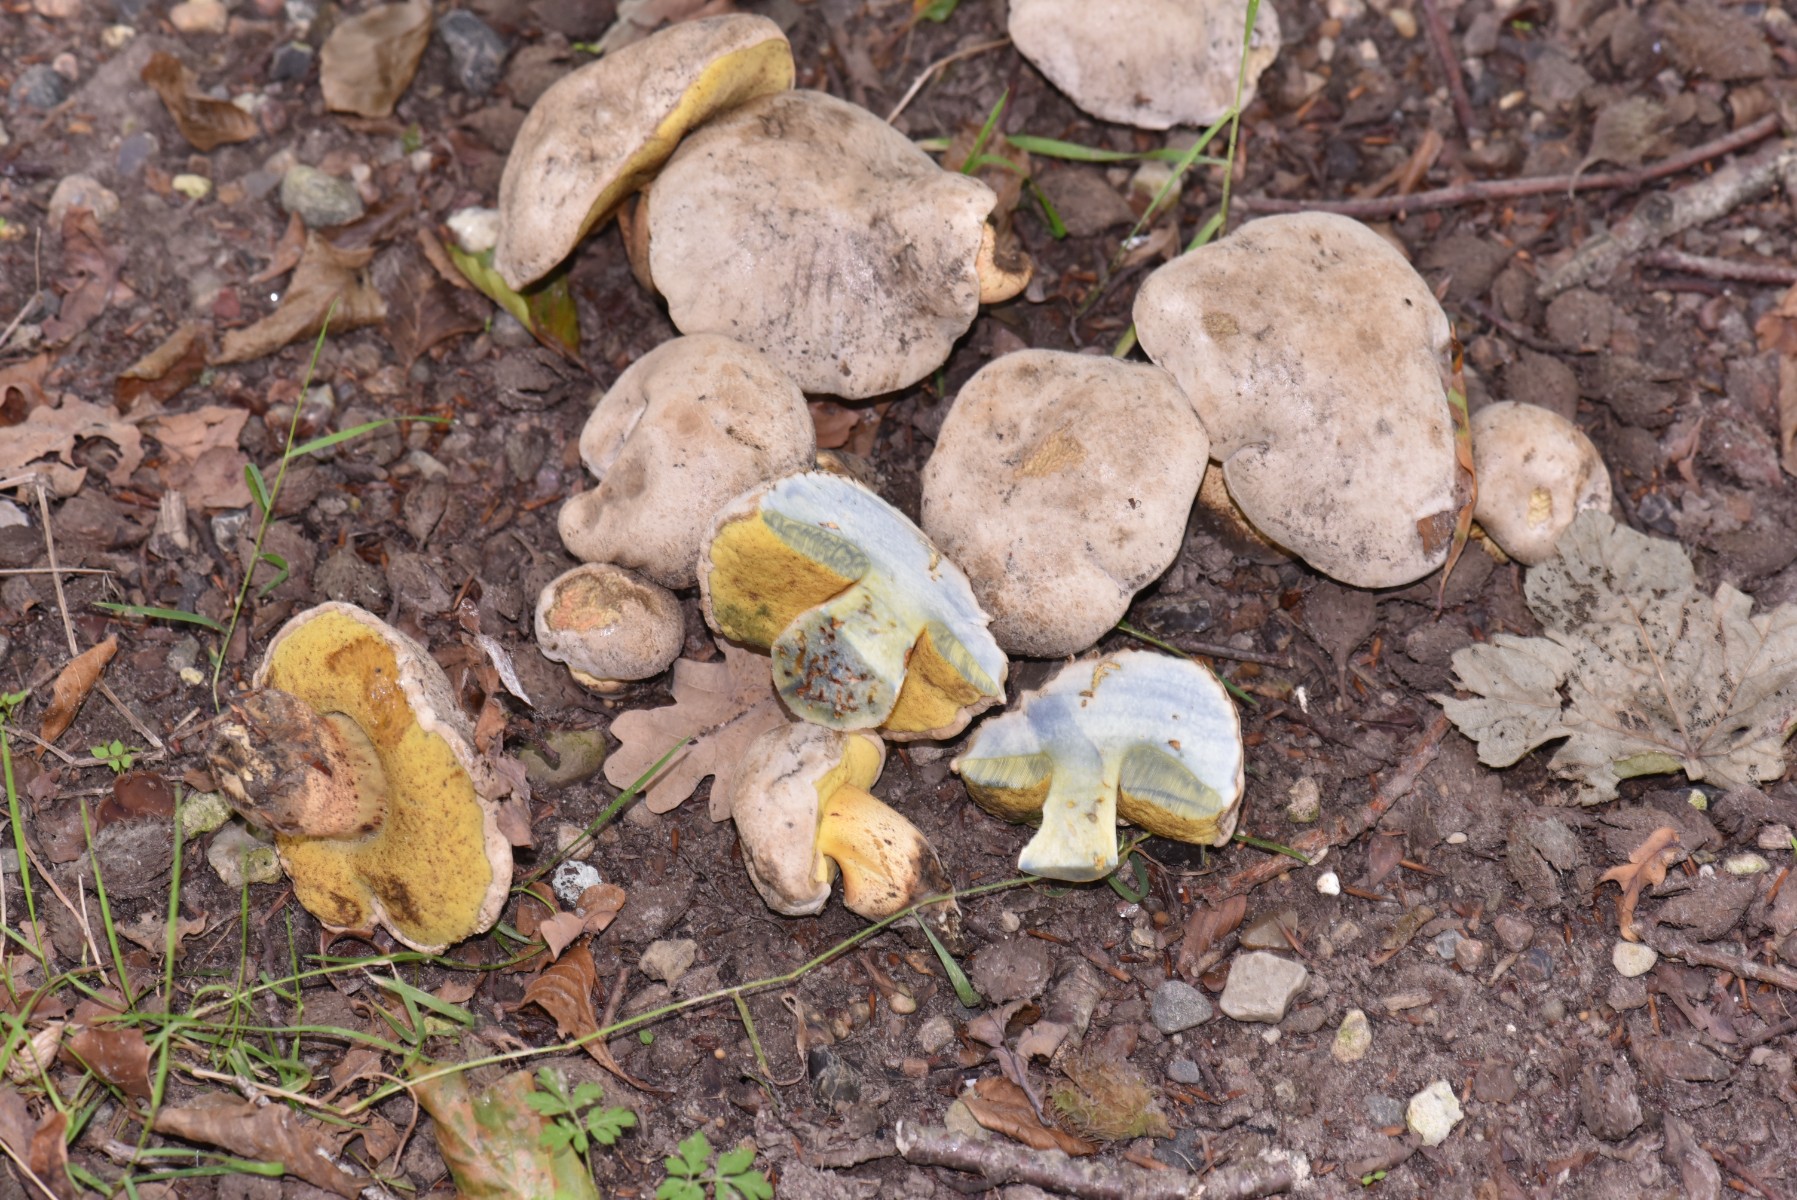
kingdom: Fungi
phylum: Basidiomycota
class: Agaricomycetes
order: Boletales
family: Boletaceae
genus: Caloboletus
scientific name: Caloboletus radicans
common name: rod-rørhat
